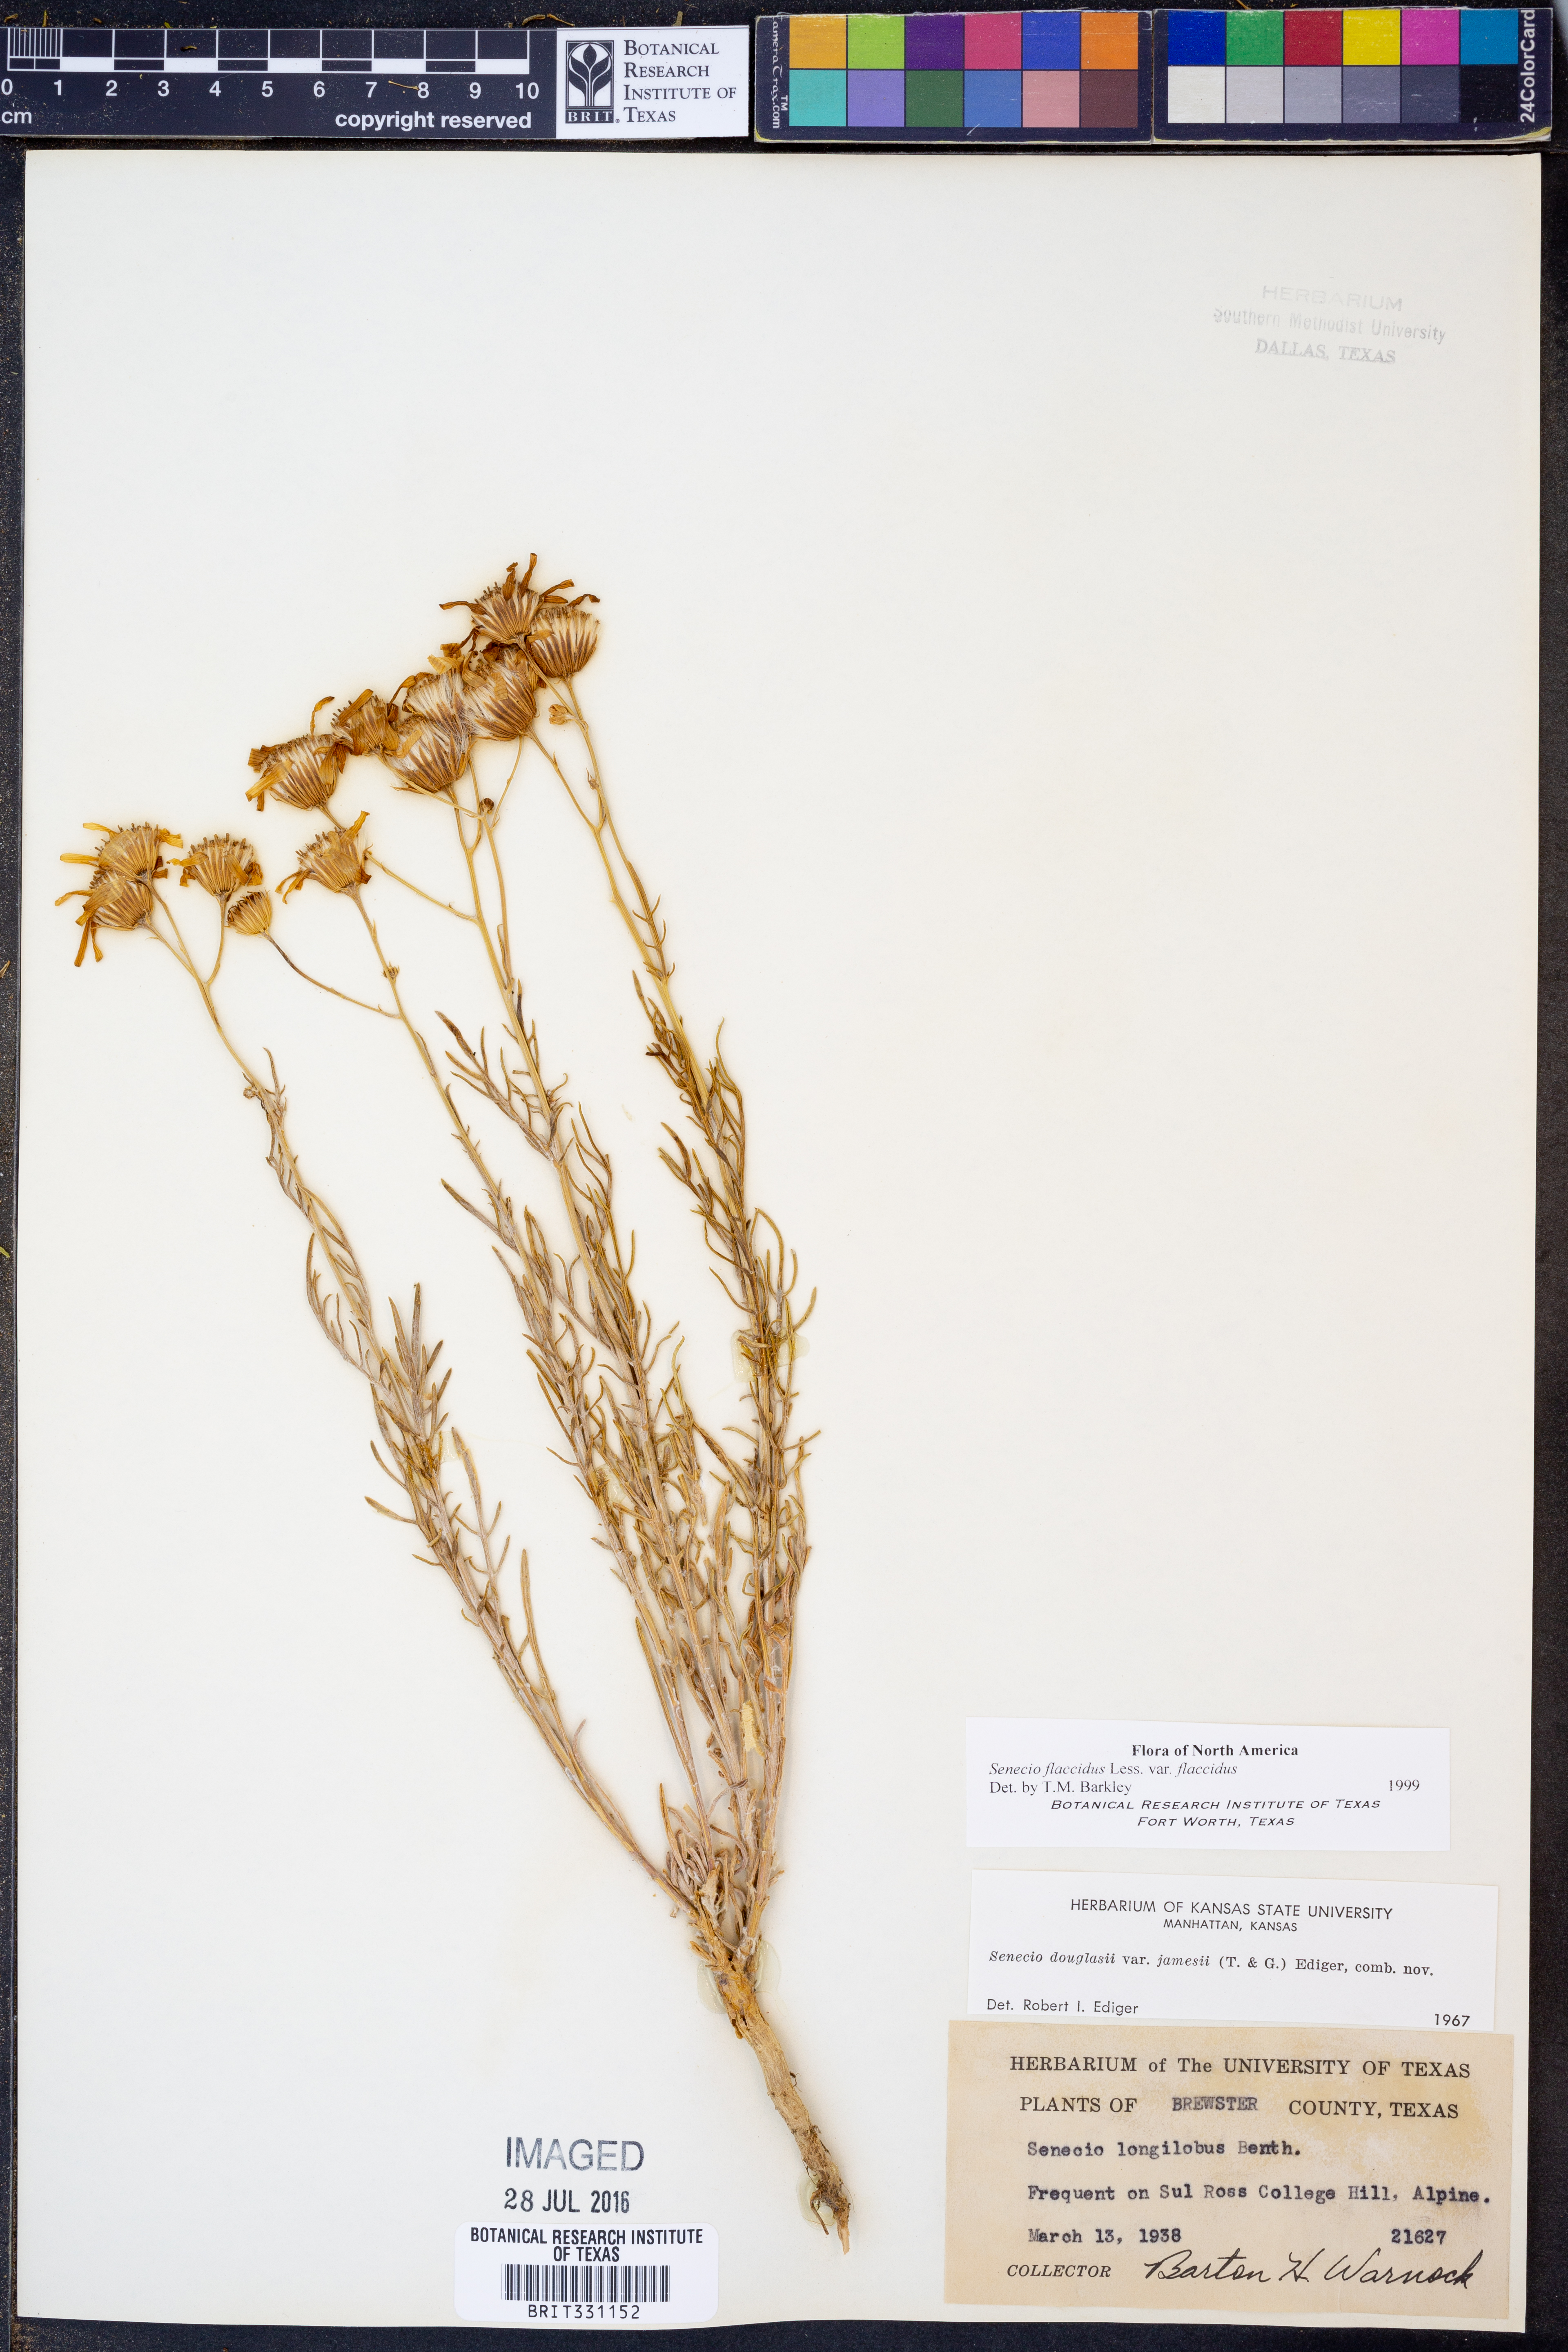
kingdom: Plantae
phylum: Tracheophyta
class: Magnoliopsida
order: Asterales
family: Asteraceae
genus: Senecio
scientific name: Senecio flaccidus
